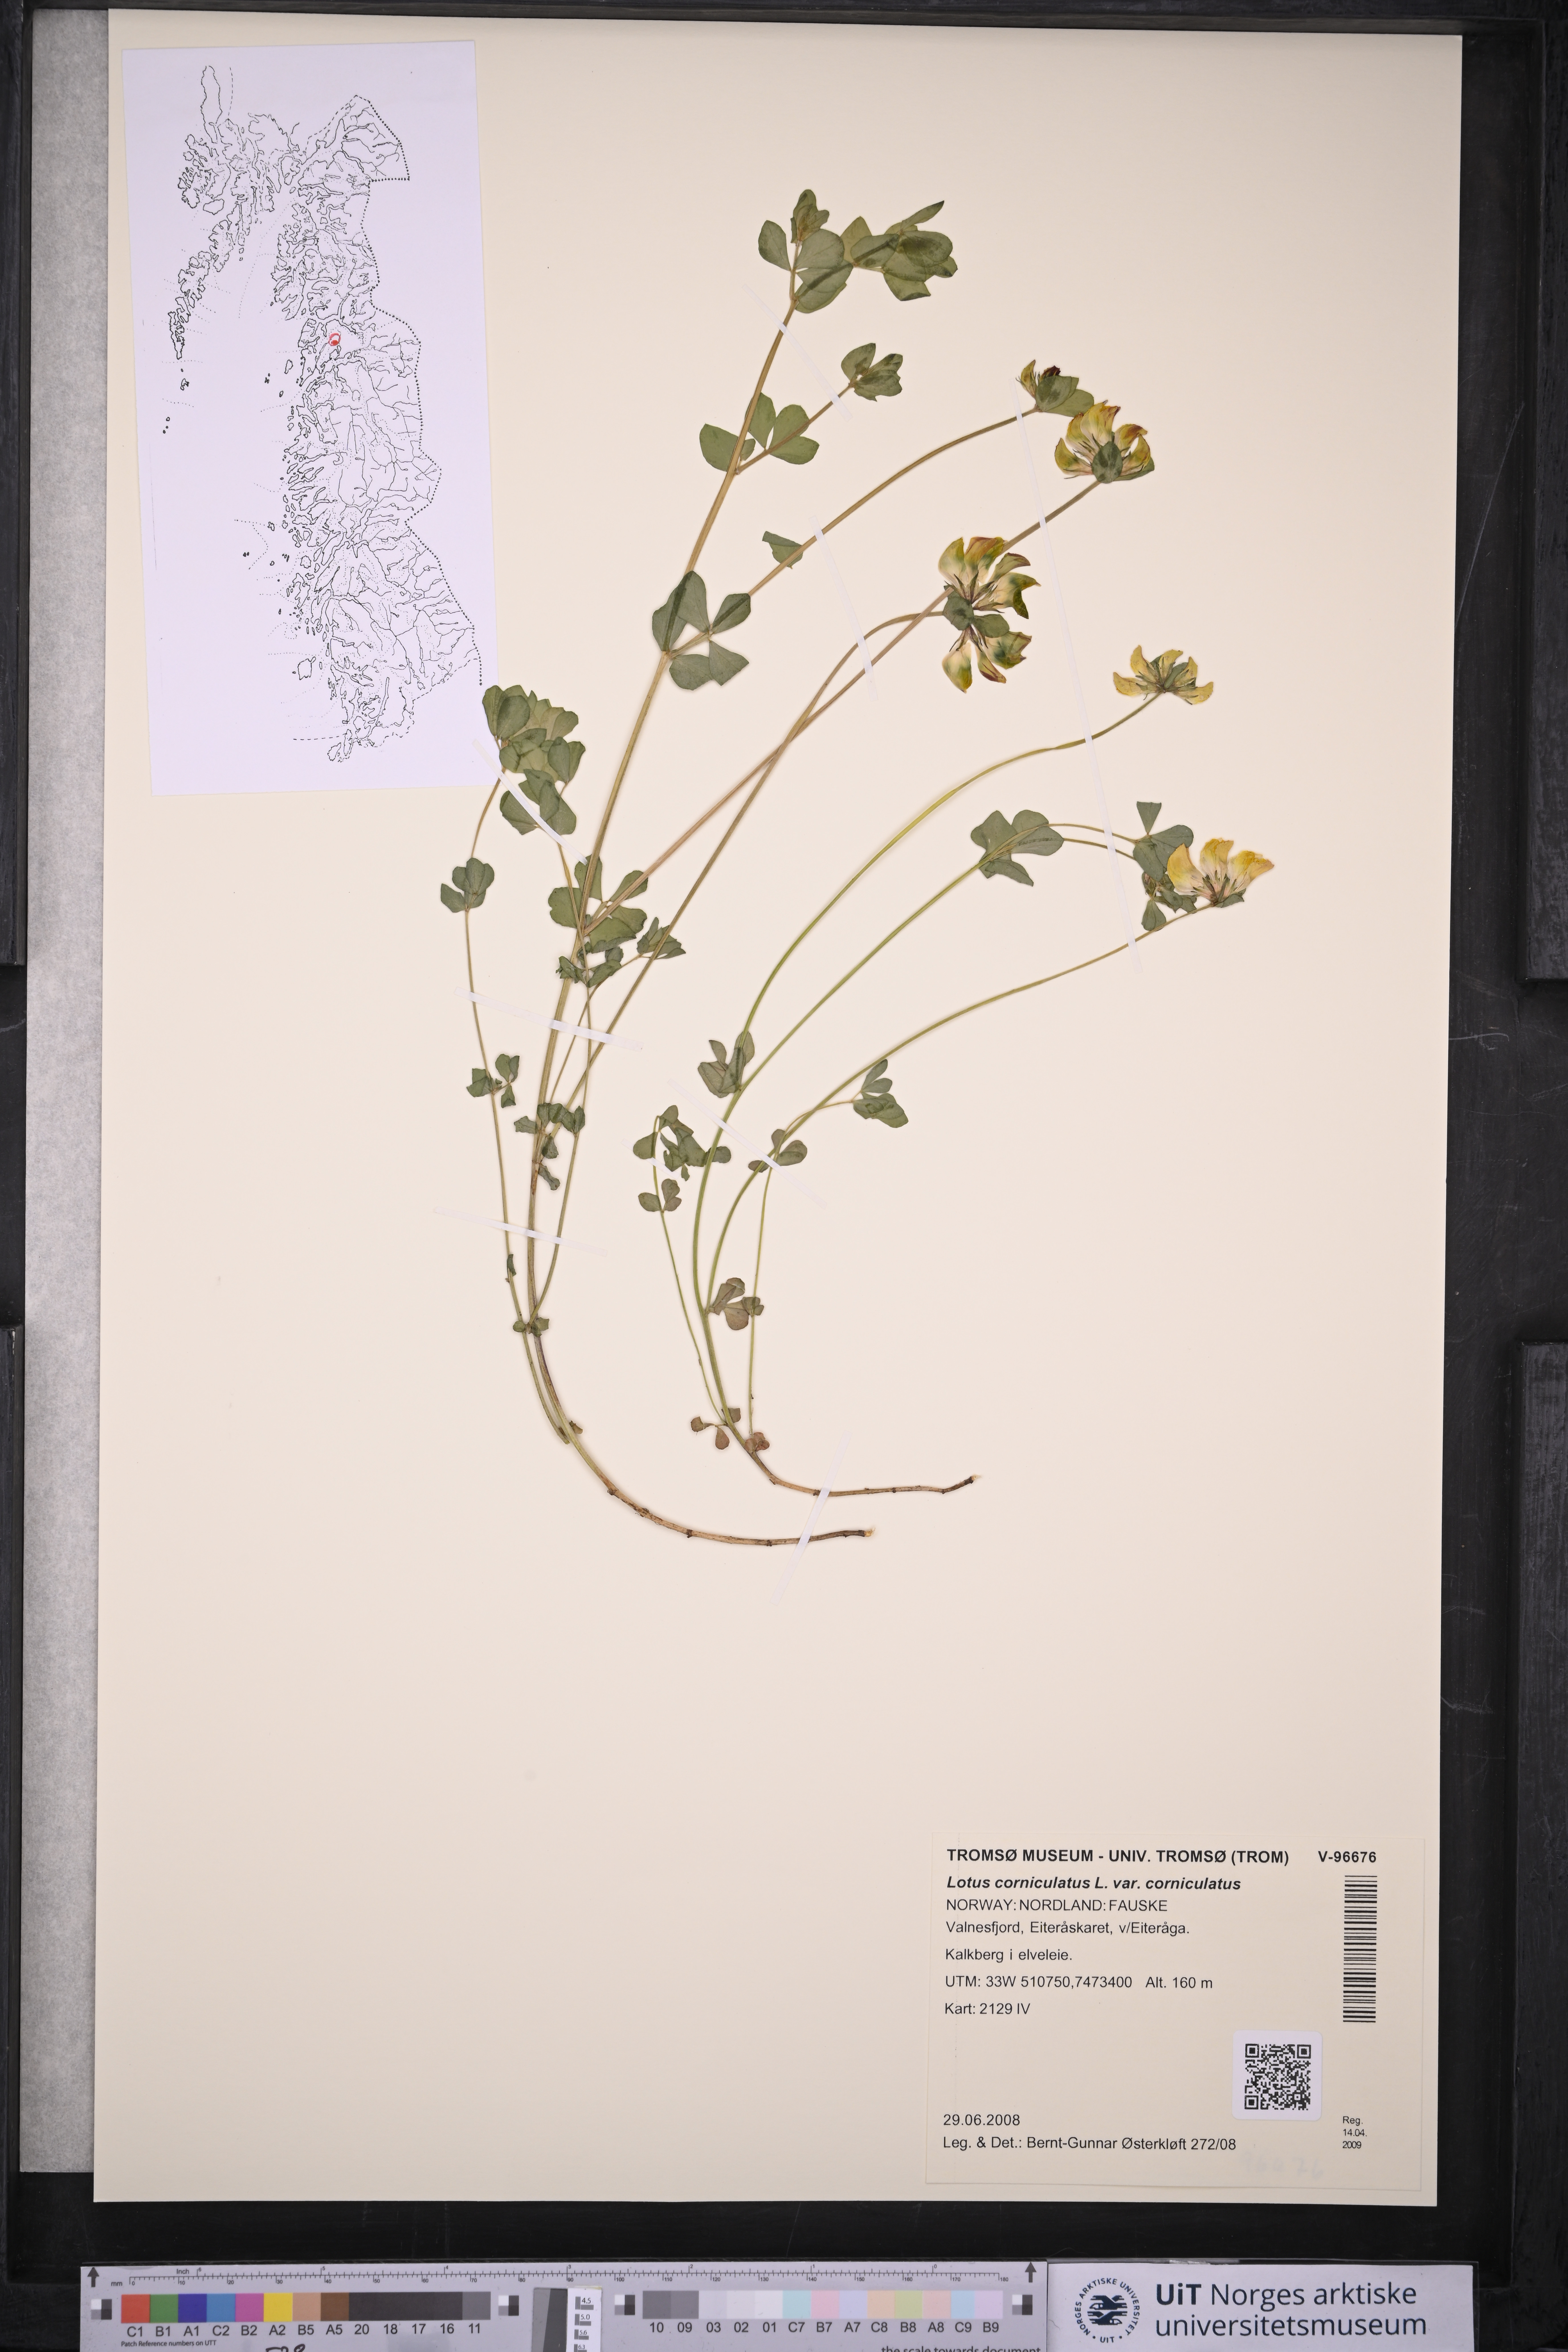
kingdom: Plantae
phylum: Tracheophyta
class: Magnoliopsida
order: Fabales
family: Fabaceae
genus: Lotus
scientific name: Lotus corniculatus
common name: Common bird's-foot-trefoil
